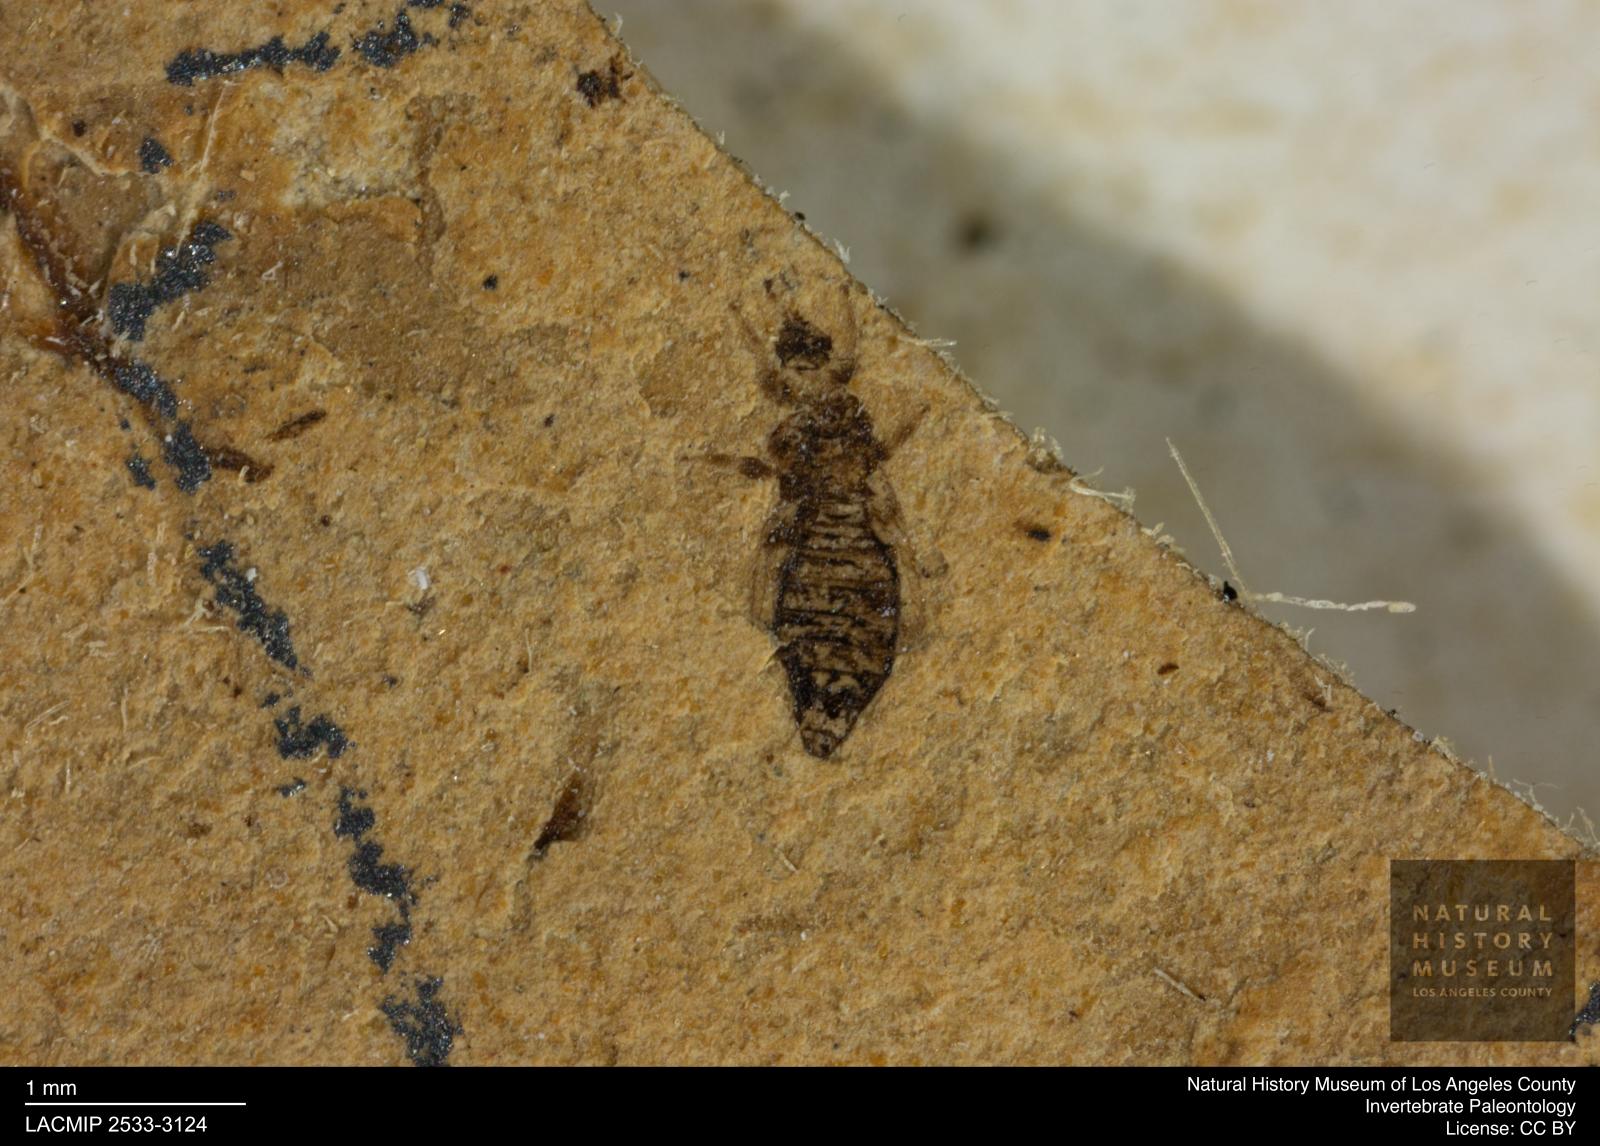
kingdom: Animalia
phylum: Arthropoda
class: Insecta
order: Thysanoptera
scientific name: Thysanoptera
